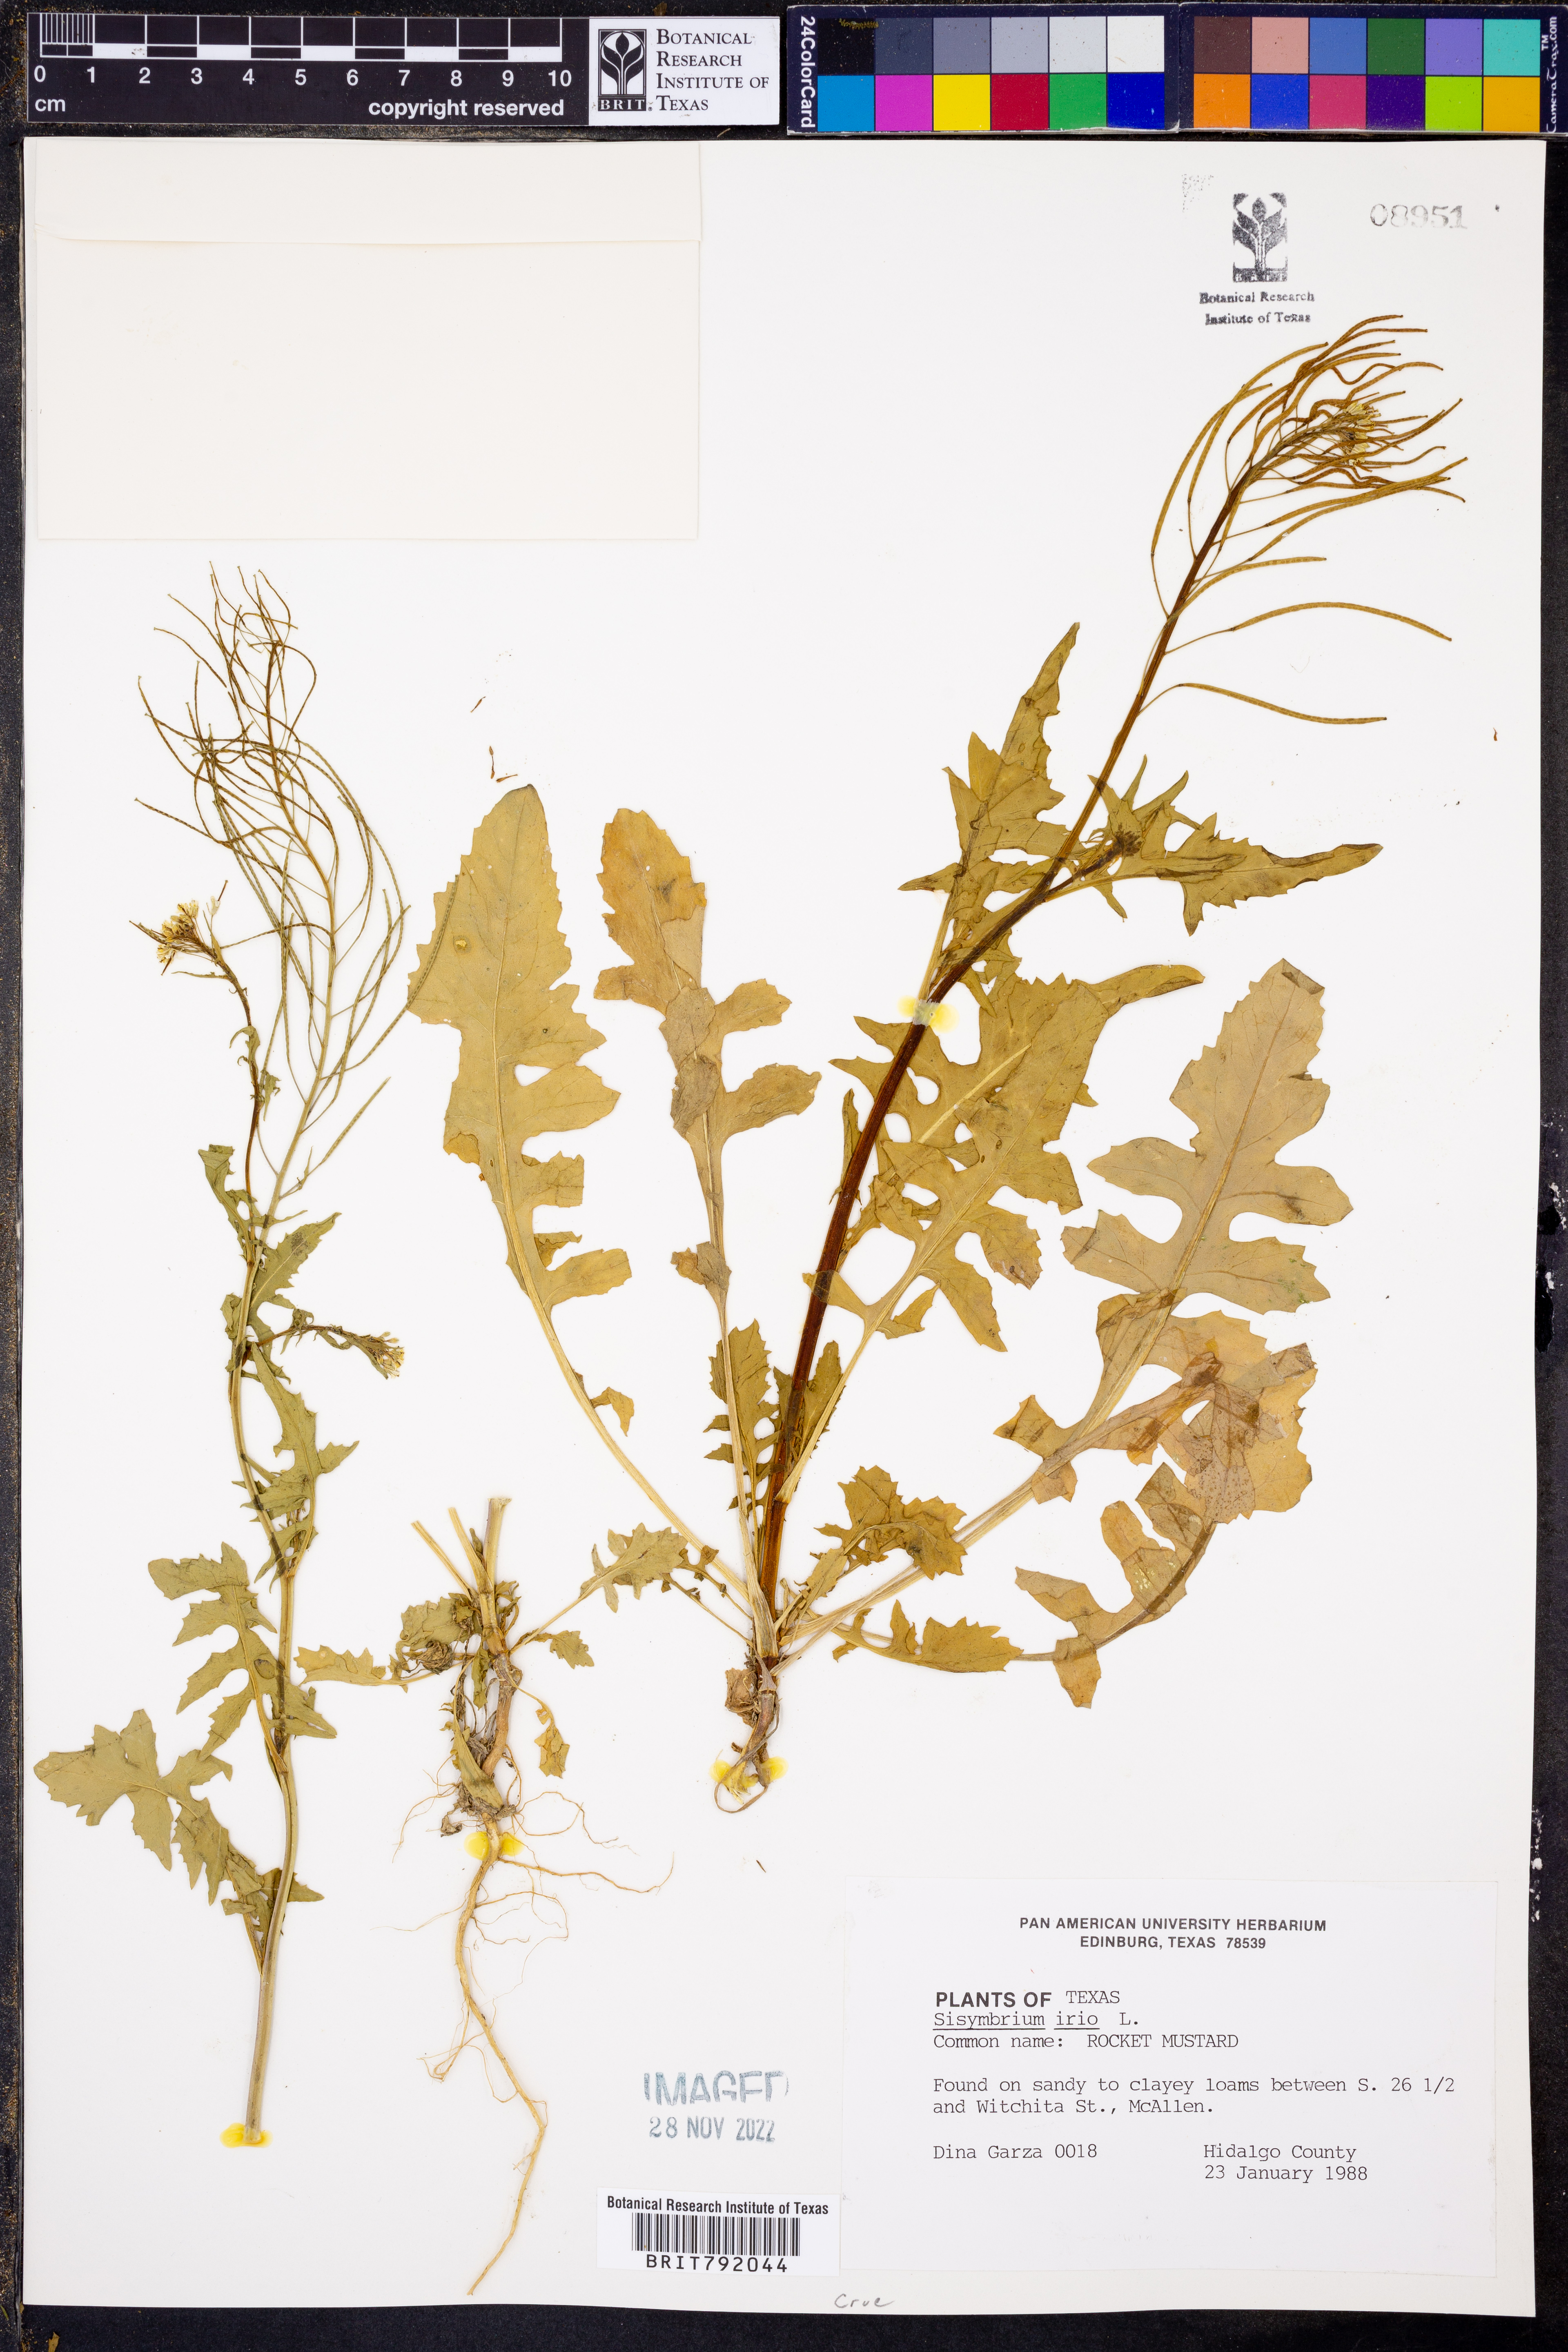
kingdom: Plantae
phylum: Tracheophyta
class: Magnoliopsida
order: Brassicales
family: Brassicaceae
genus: Sisymbrium
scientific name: Sisymbrium irio
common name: London rocket
